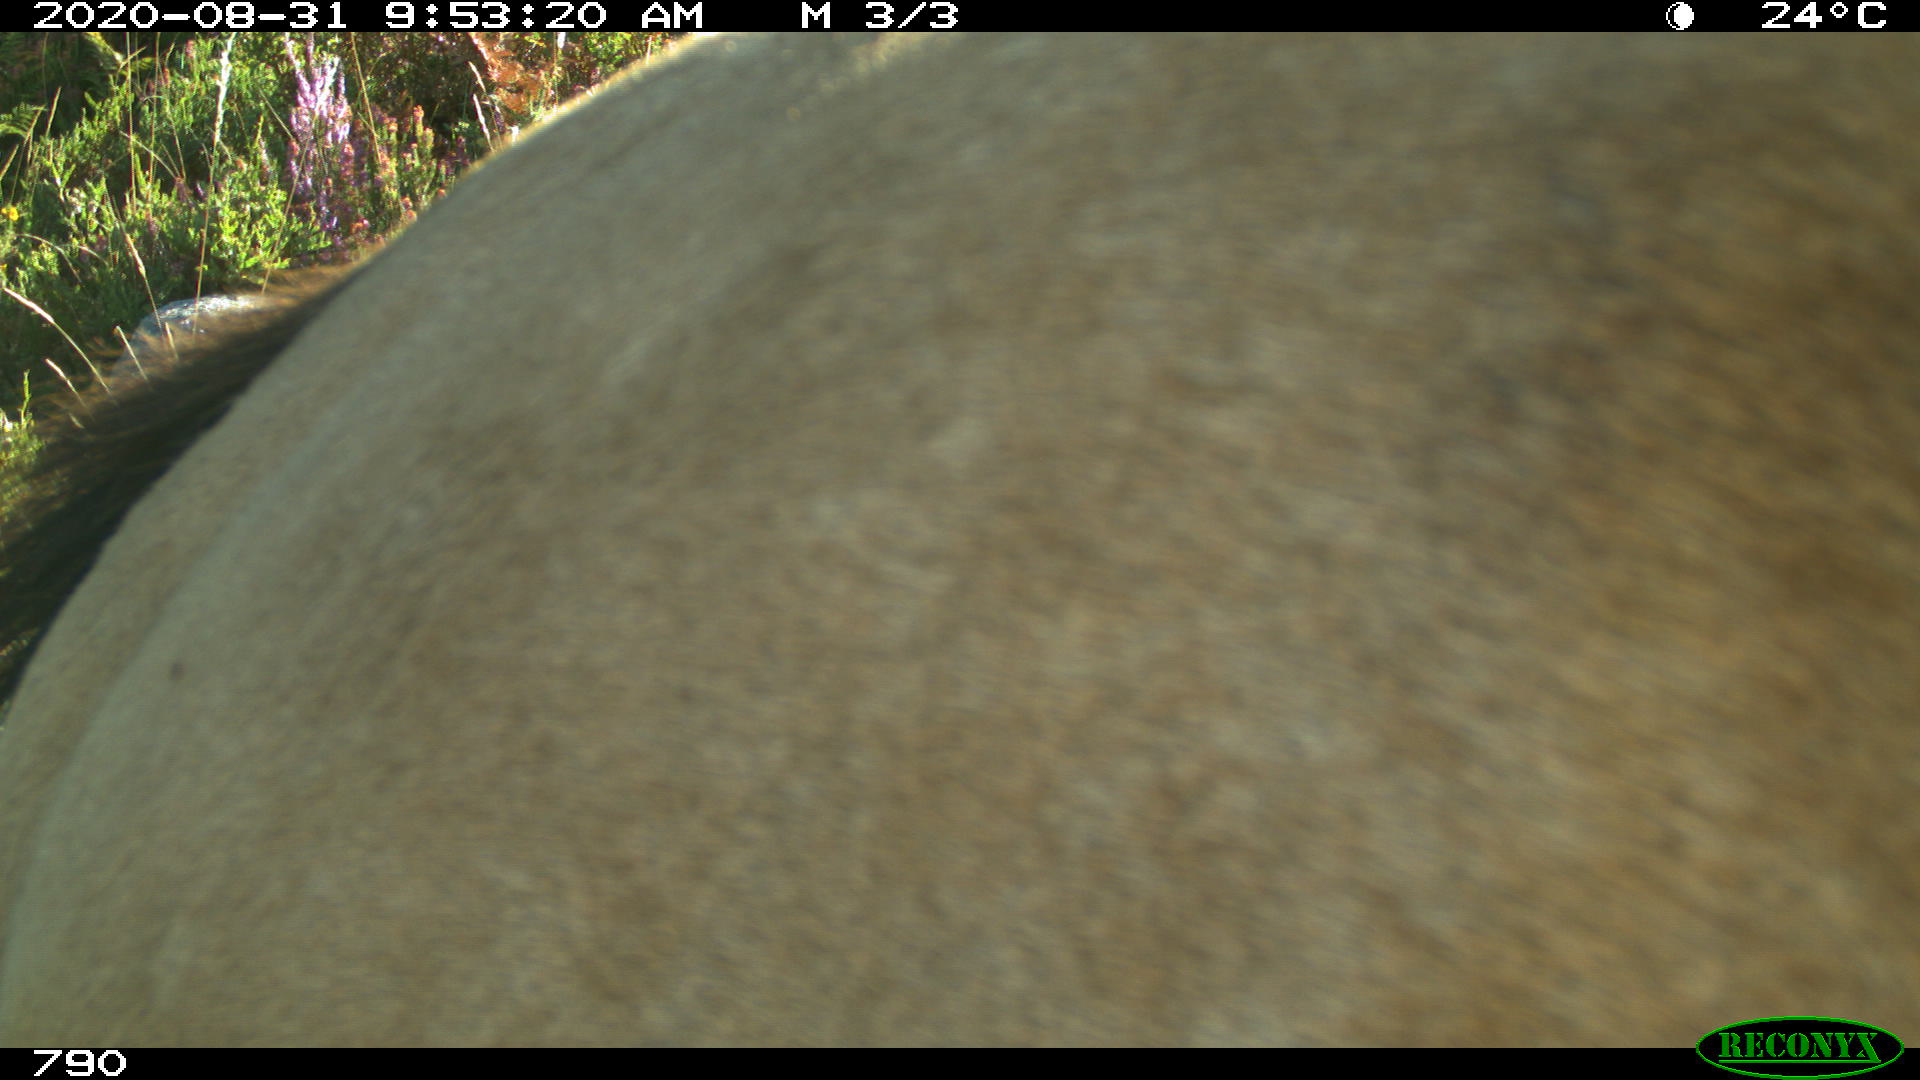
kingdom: Animalia
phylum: Chordata
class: Mammalia
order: Perissodactyla
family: Equidae
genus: Equus
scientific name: Equus caballus
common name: Horse
